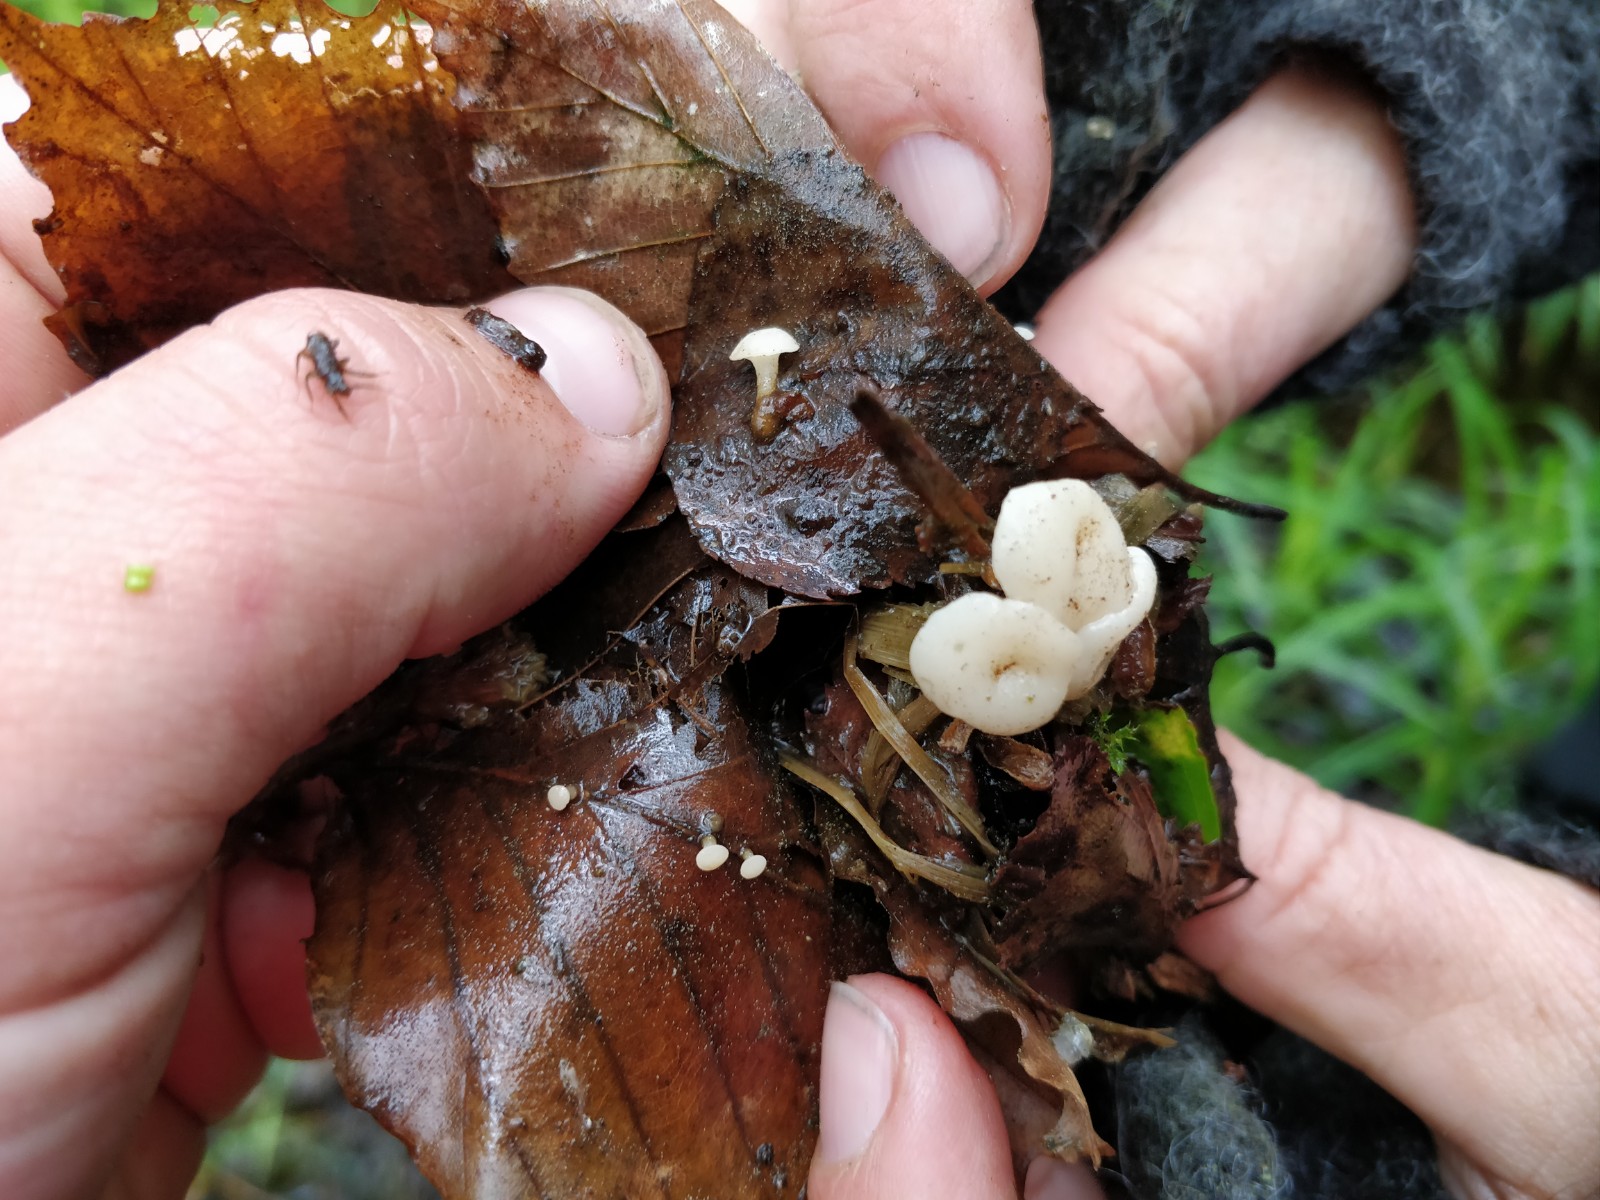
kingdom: Fungi
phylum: Ascomycota
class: Leotiomycetes
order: Helotiales
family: Tricladiaceae
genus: Cudoniella
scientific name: Cudoniella clavus
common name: stor dyndskive
